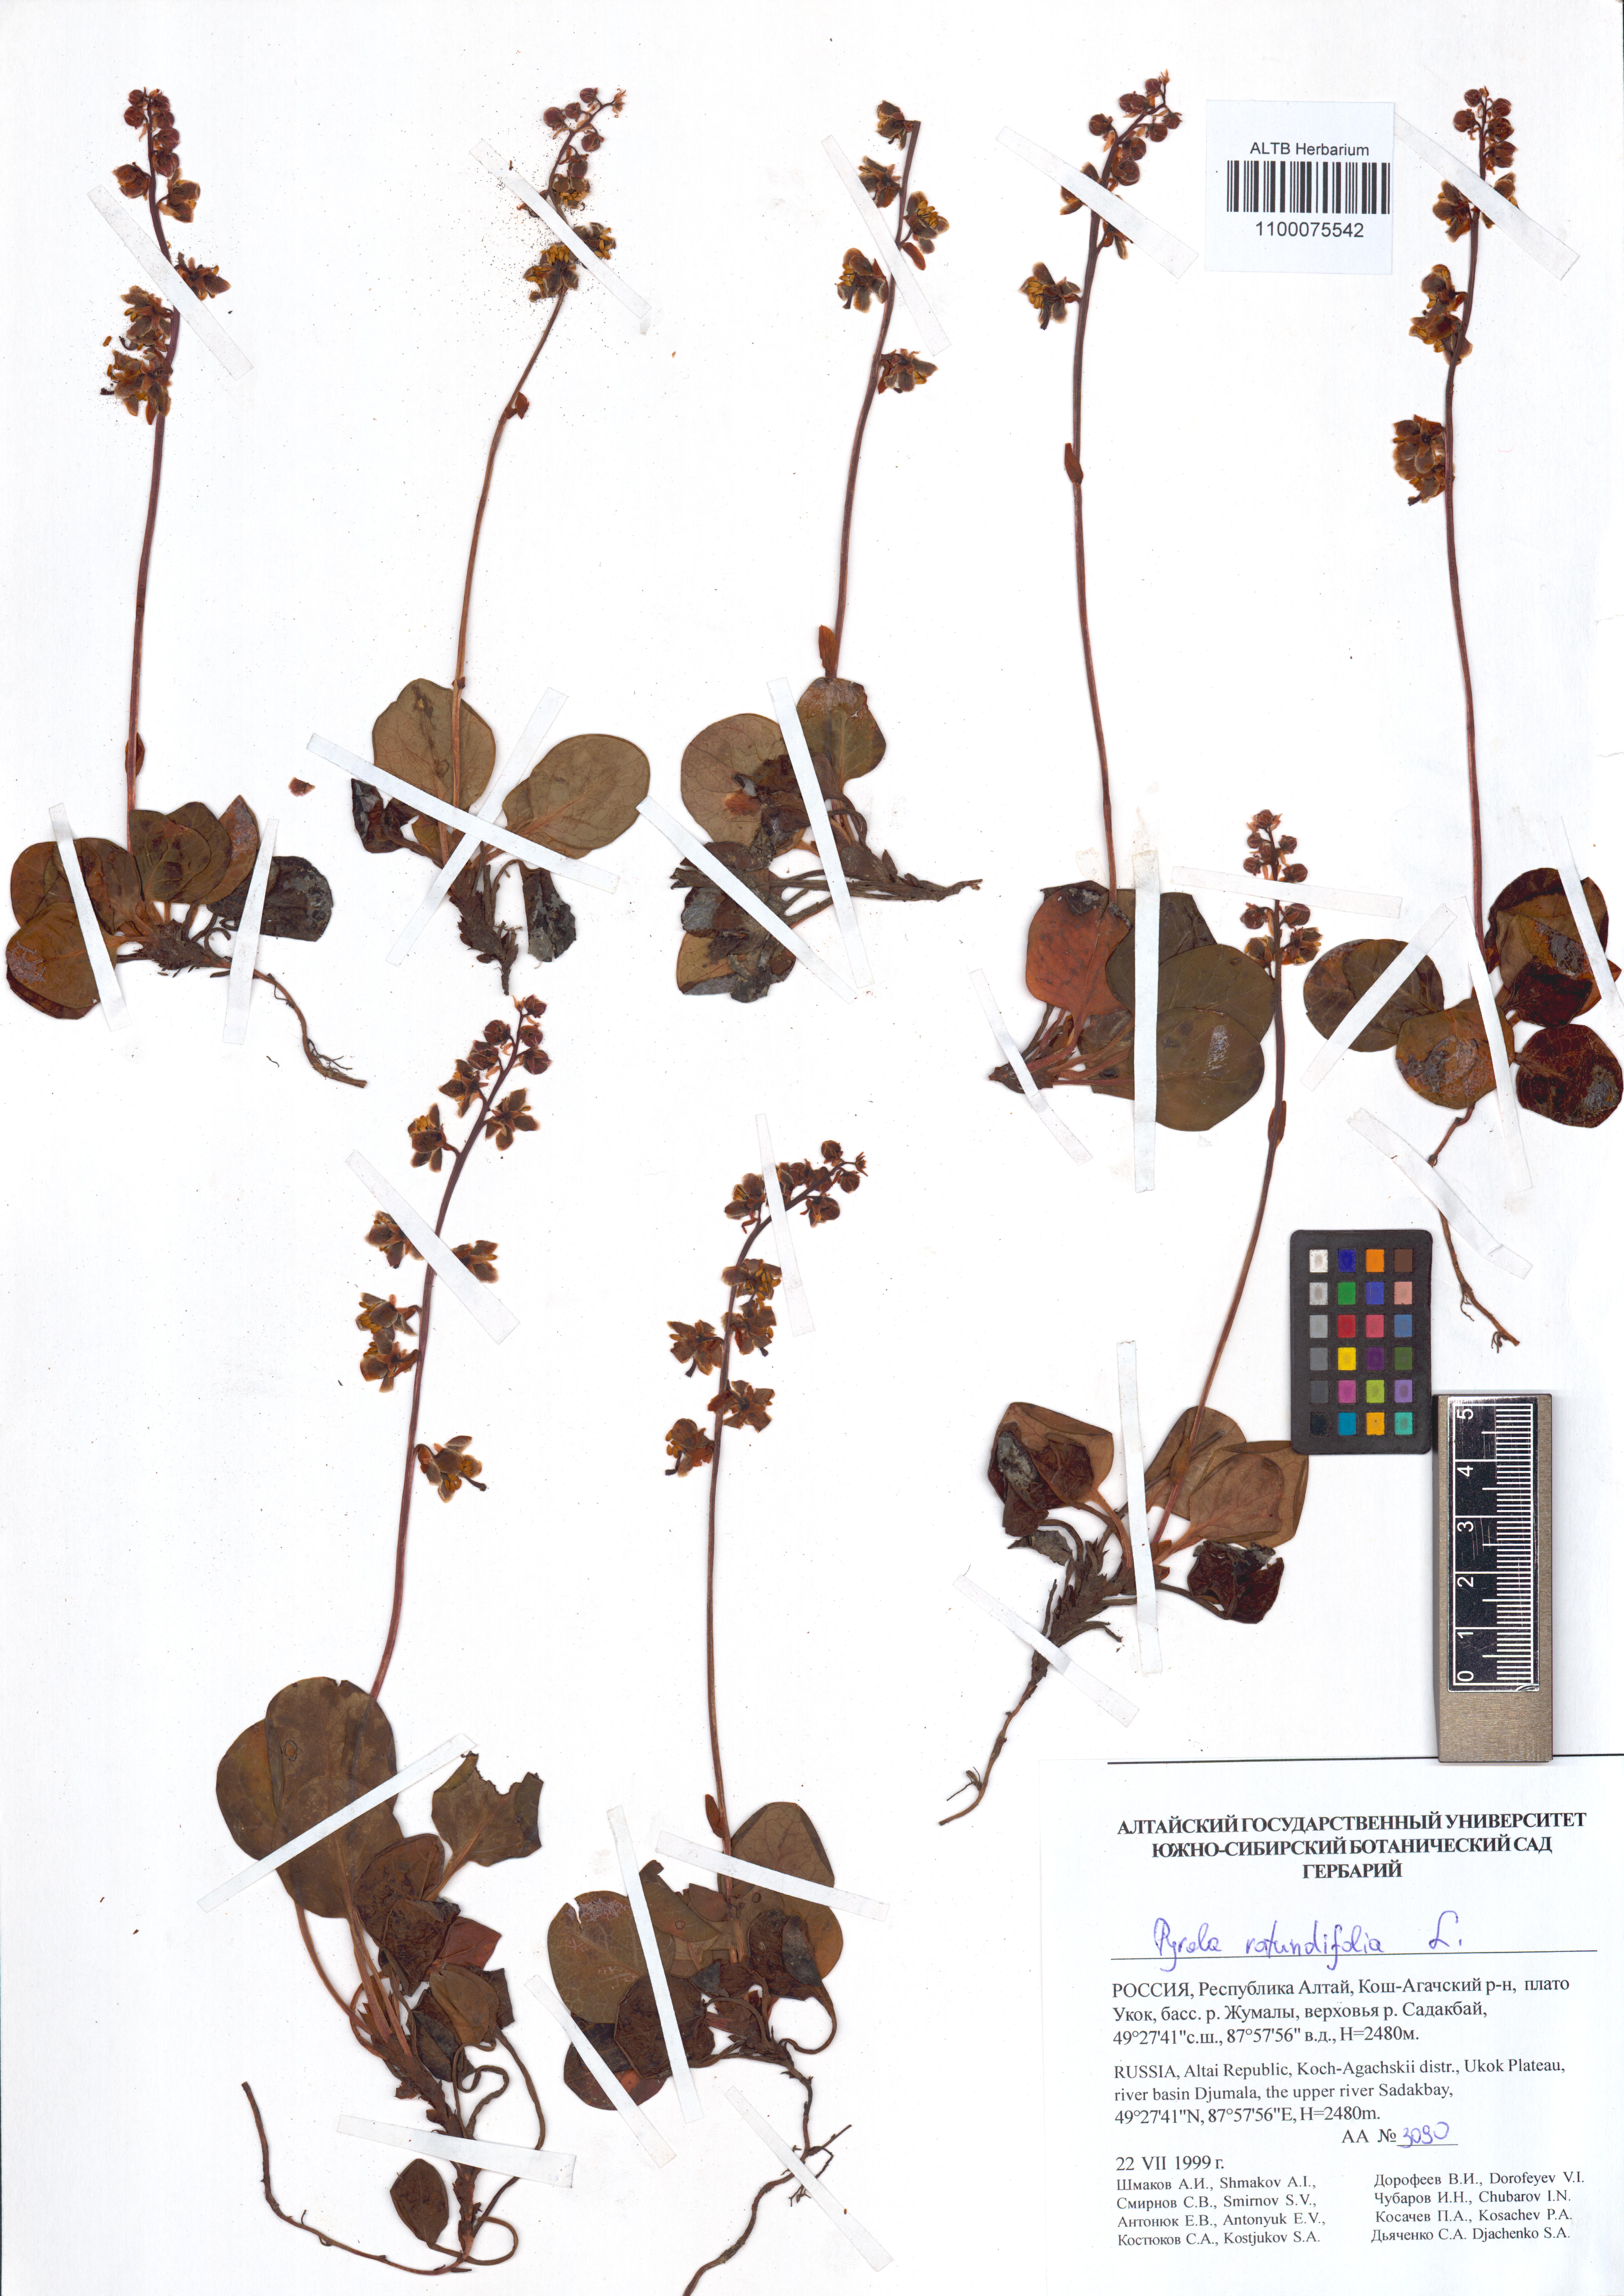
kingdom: Plantae
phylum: Tracheophyta
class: Magnoliopsida
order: Ericales
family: Ericaceae
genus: Pyrola
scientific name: Pyrola rotundifolia
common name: Round-leaved wintergreen
